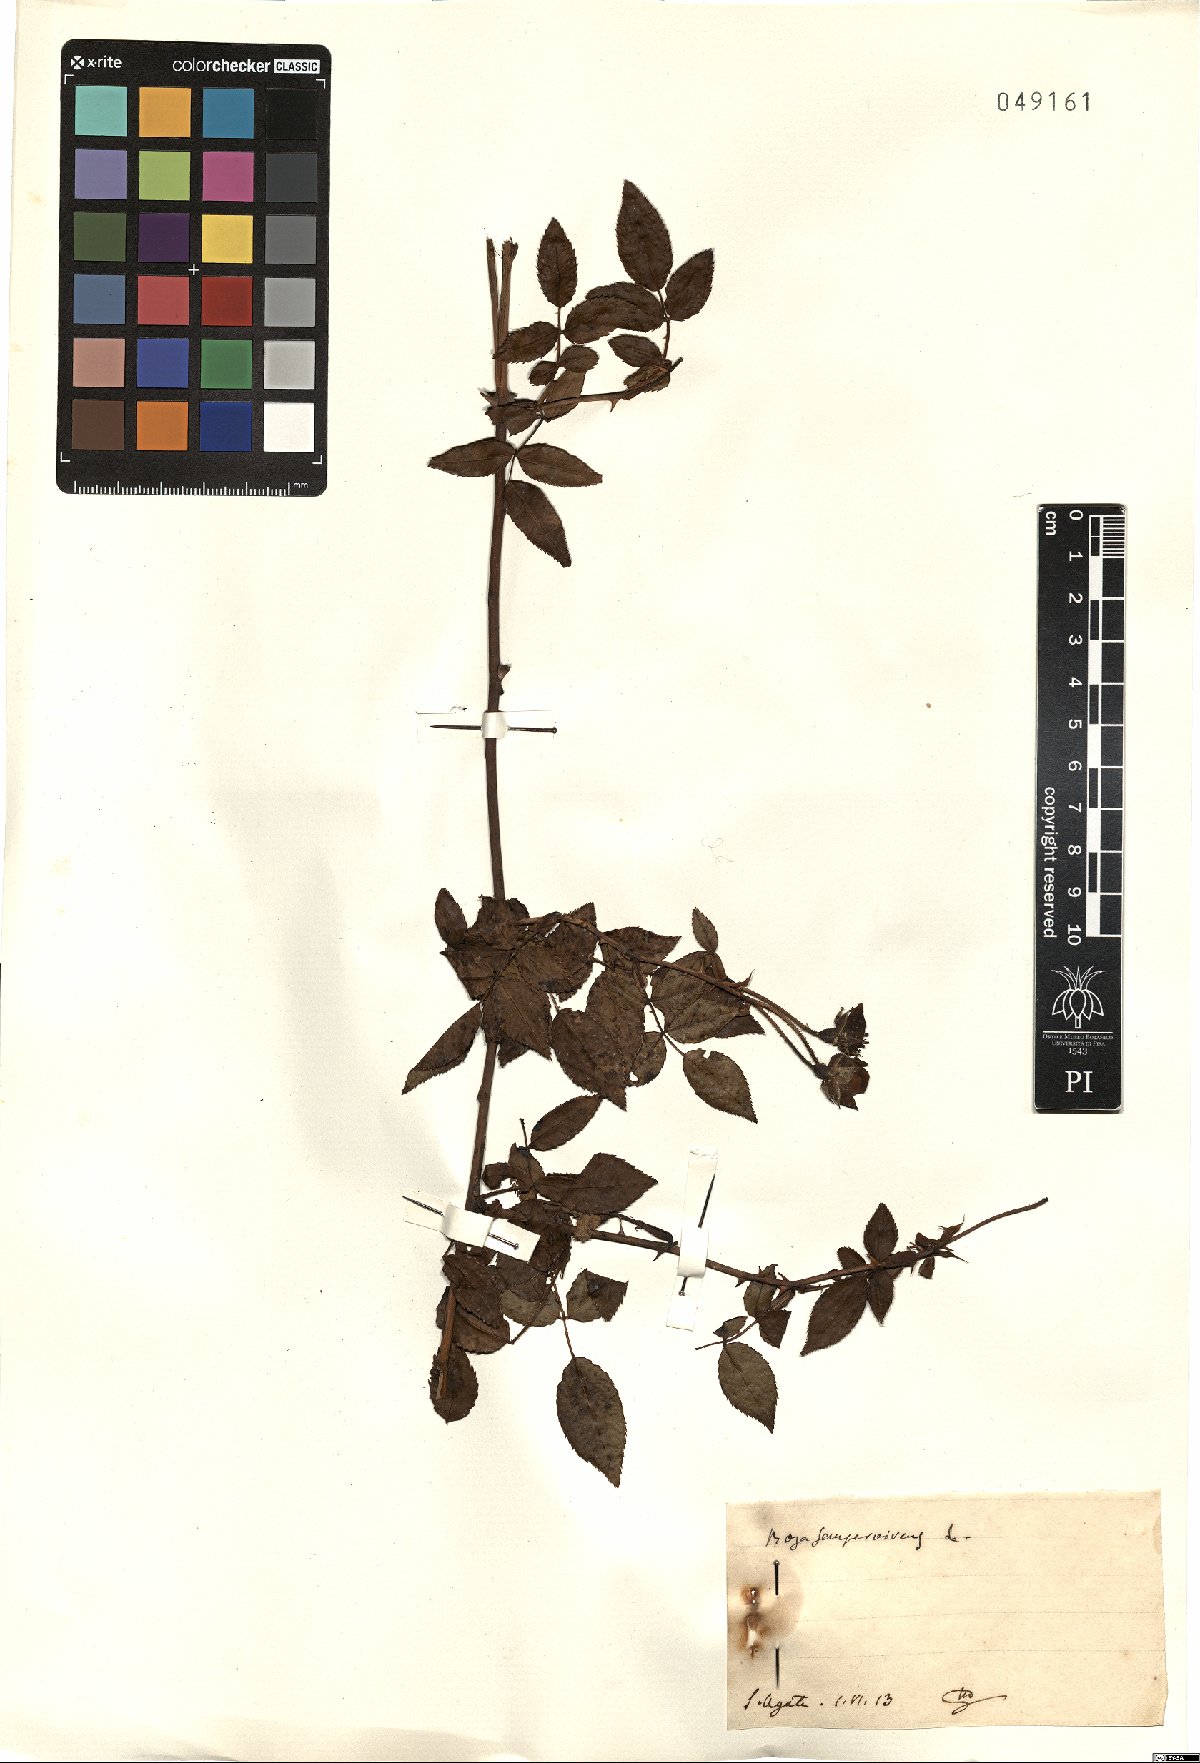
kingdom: Plantae
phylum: Tracheophyta
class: Magnoliopsida
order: Rosales
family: Rosaceae
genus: Rosa
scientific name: Rosa sempervirens
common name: Evergreen rose
